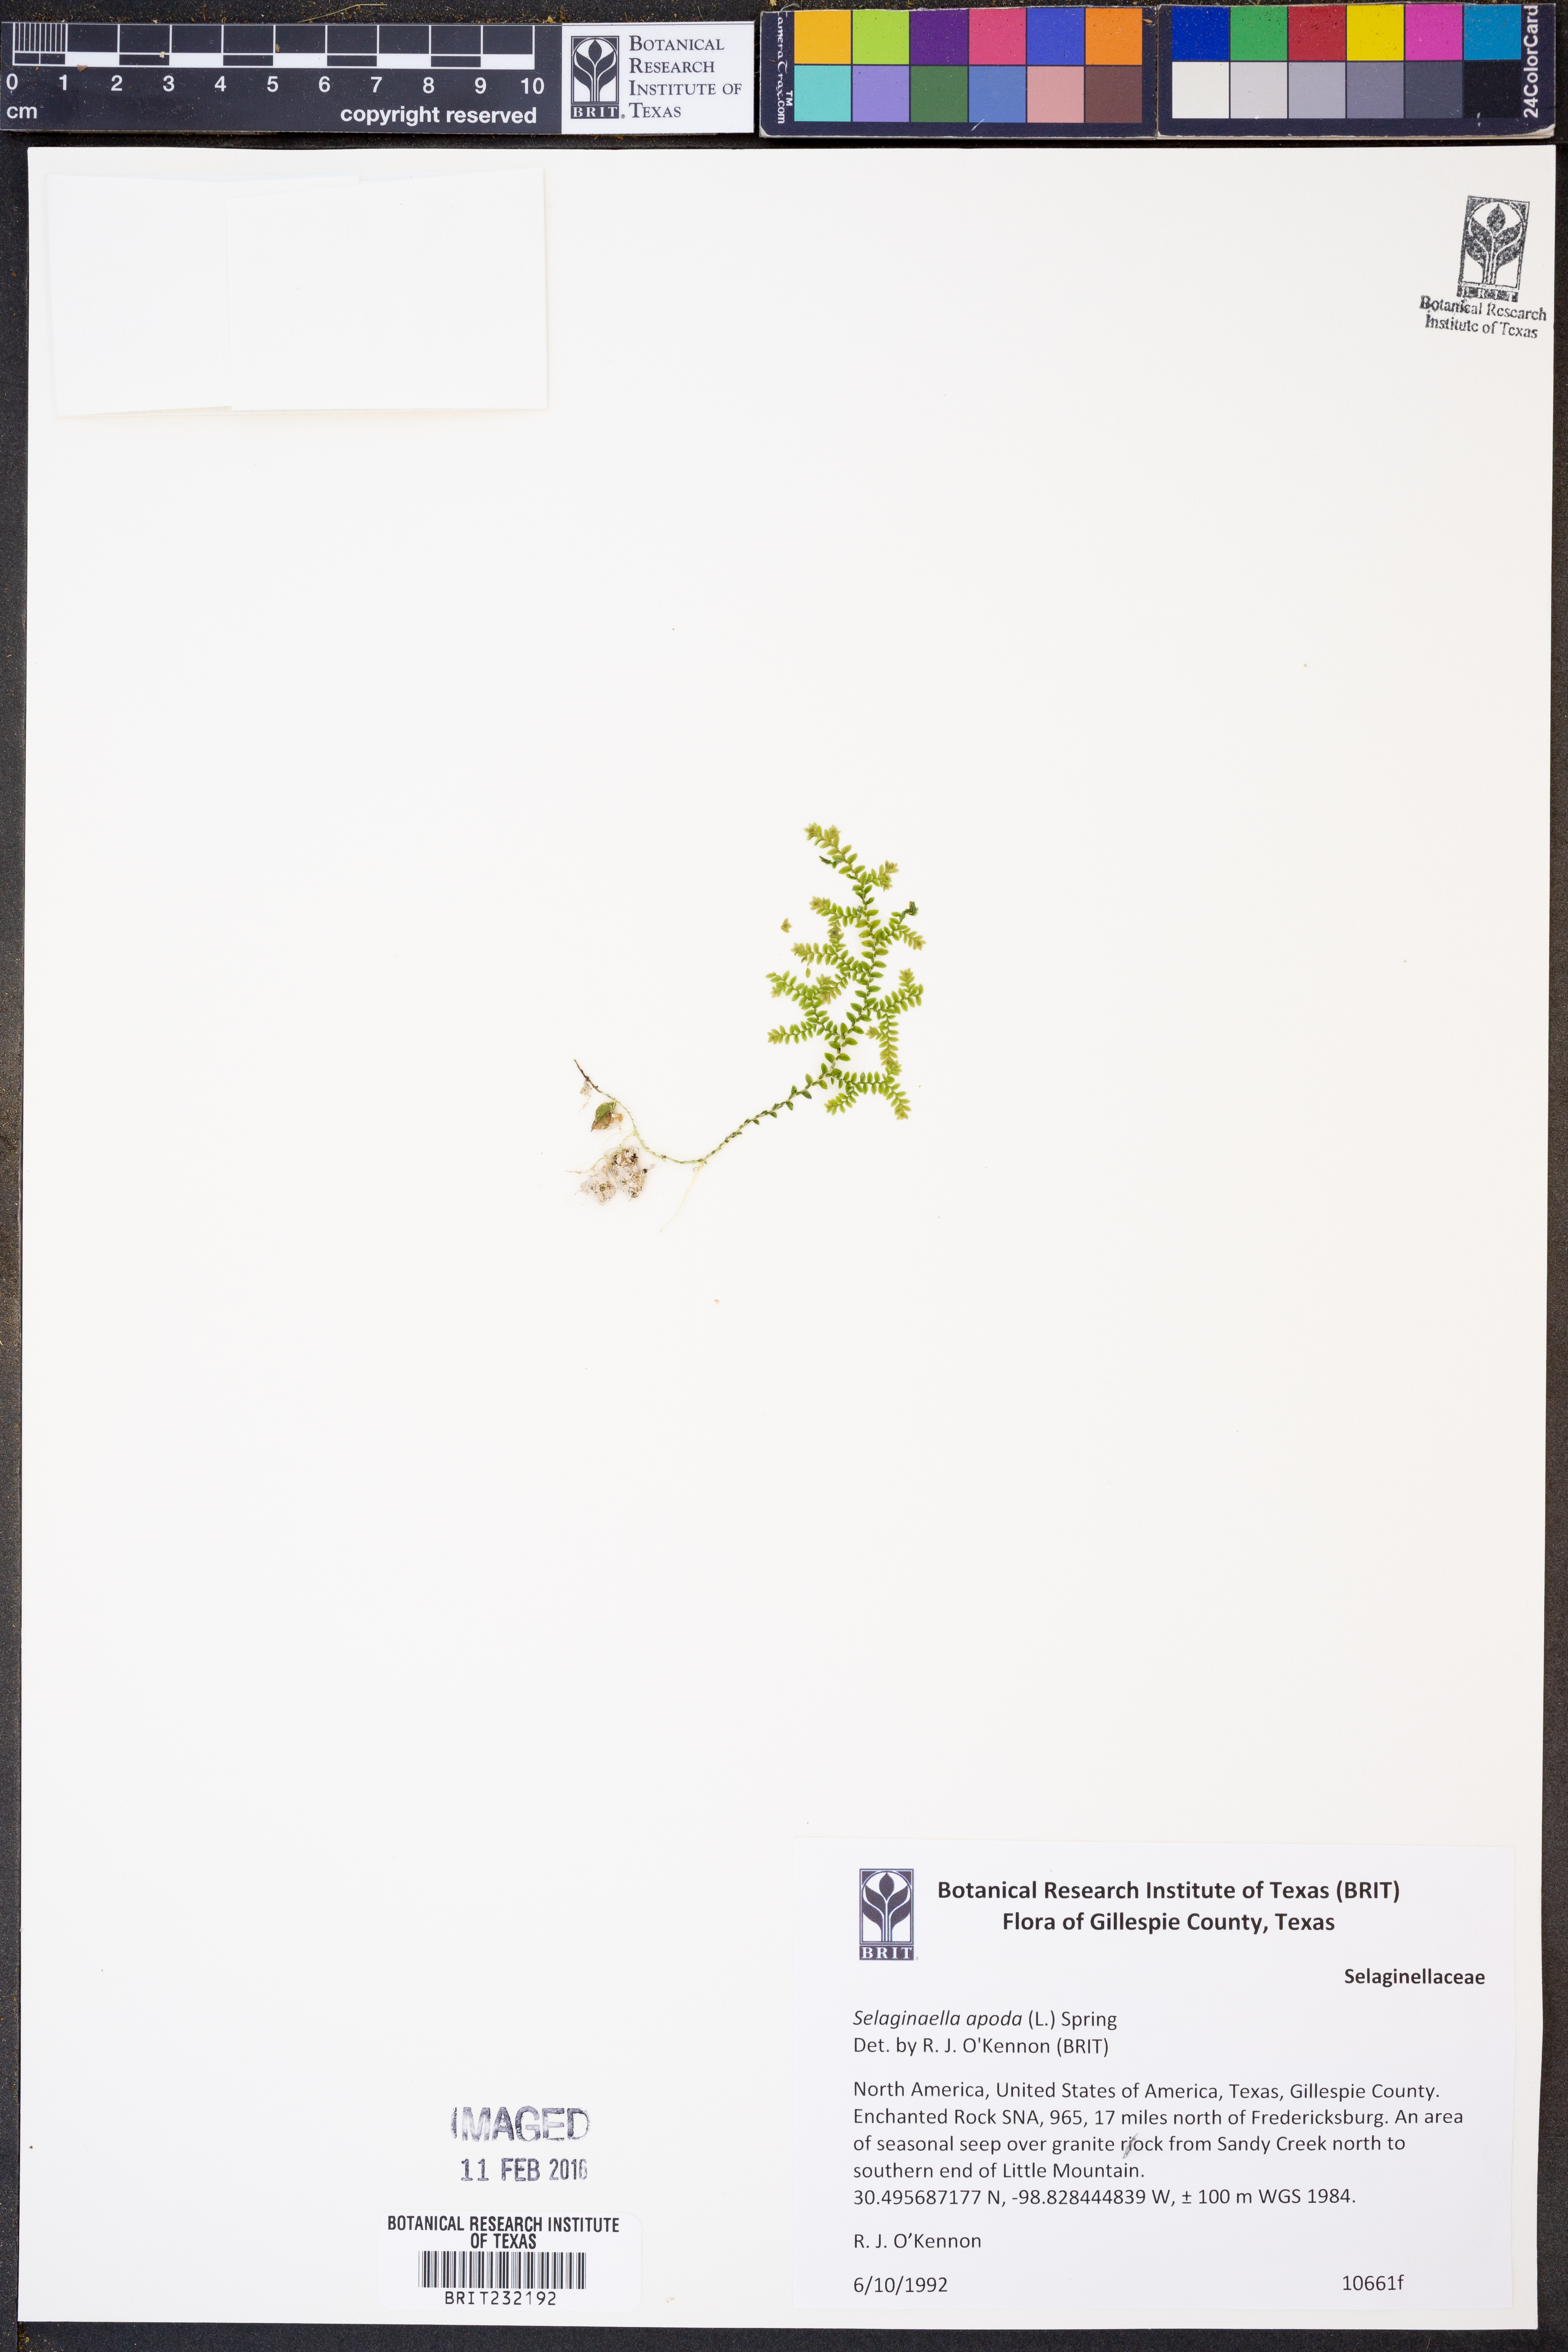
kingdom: Plantae
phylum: Tracheophyta
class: Lycopodiopsida
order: Selaginellales
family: Selaginellaceae
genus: Selaginella
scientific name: Selaginella apoda
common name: Creeping spikemoss
